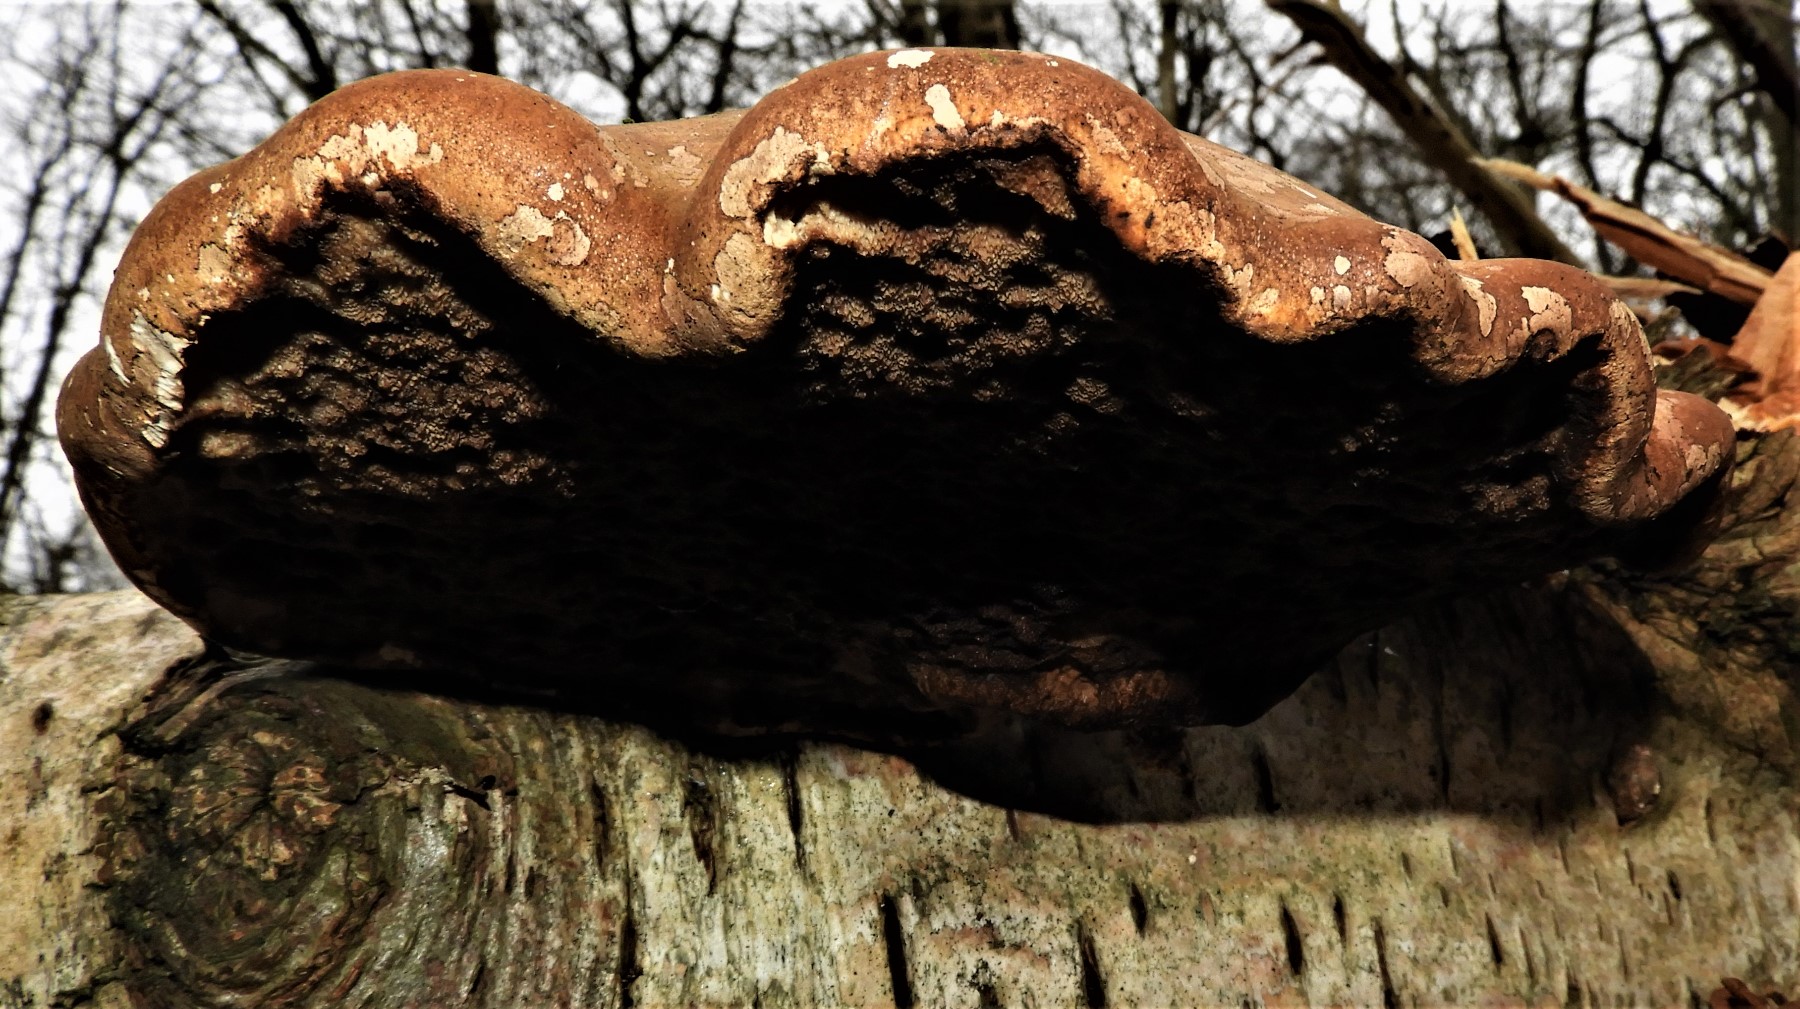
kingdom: Fungi
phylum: Basidiomycota
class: Agaricomycetes
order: Polyporales
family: Fomitopsidaceae
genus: Fomitopsis
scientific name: Fomitopsis betulina
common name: birkeporesvamp
